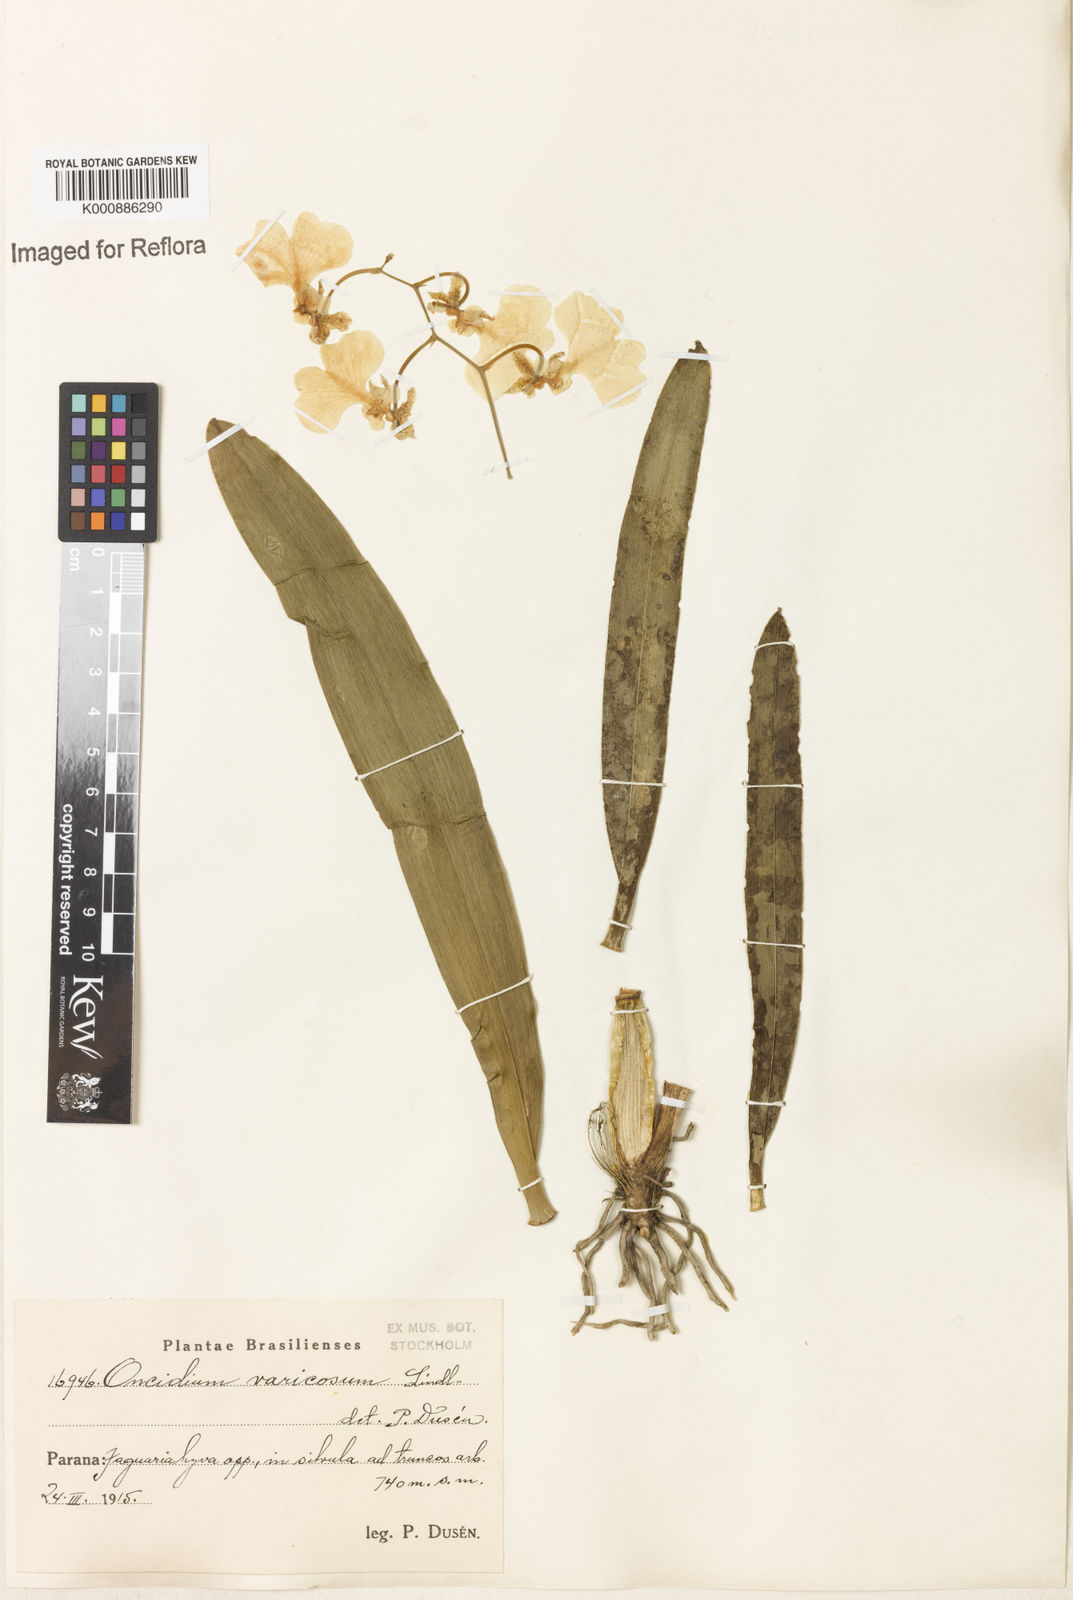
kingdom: Plantae
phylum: Tracheophyta
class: Liliopsida
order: Asparagales
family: Orchidaceae
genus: Gomesa
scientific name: Gomesa varicosa
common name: Dancing ladies
